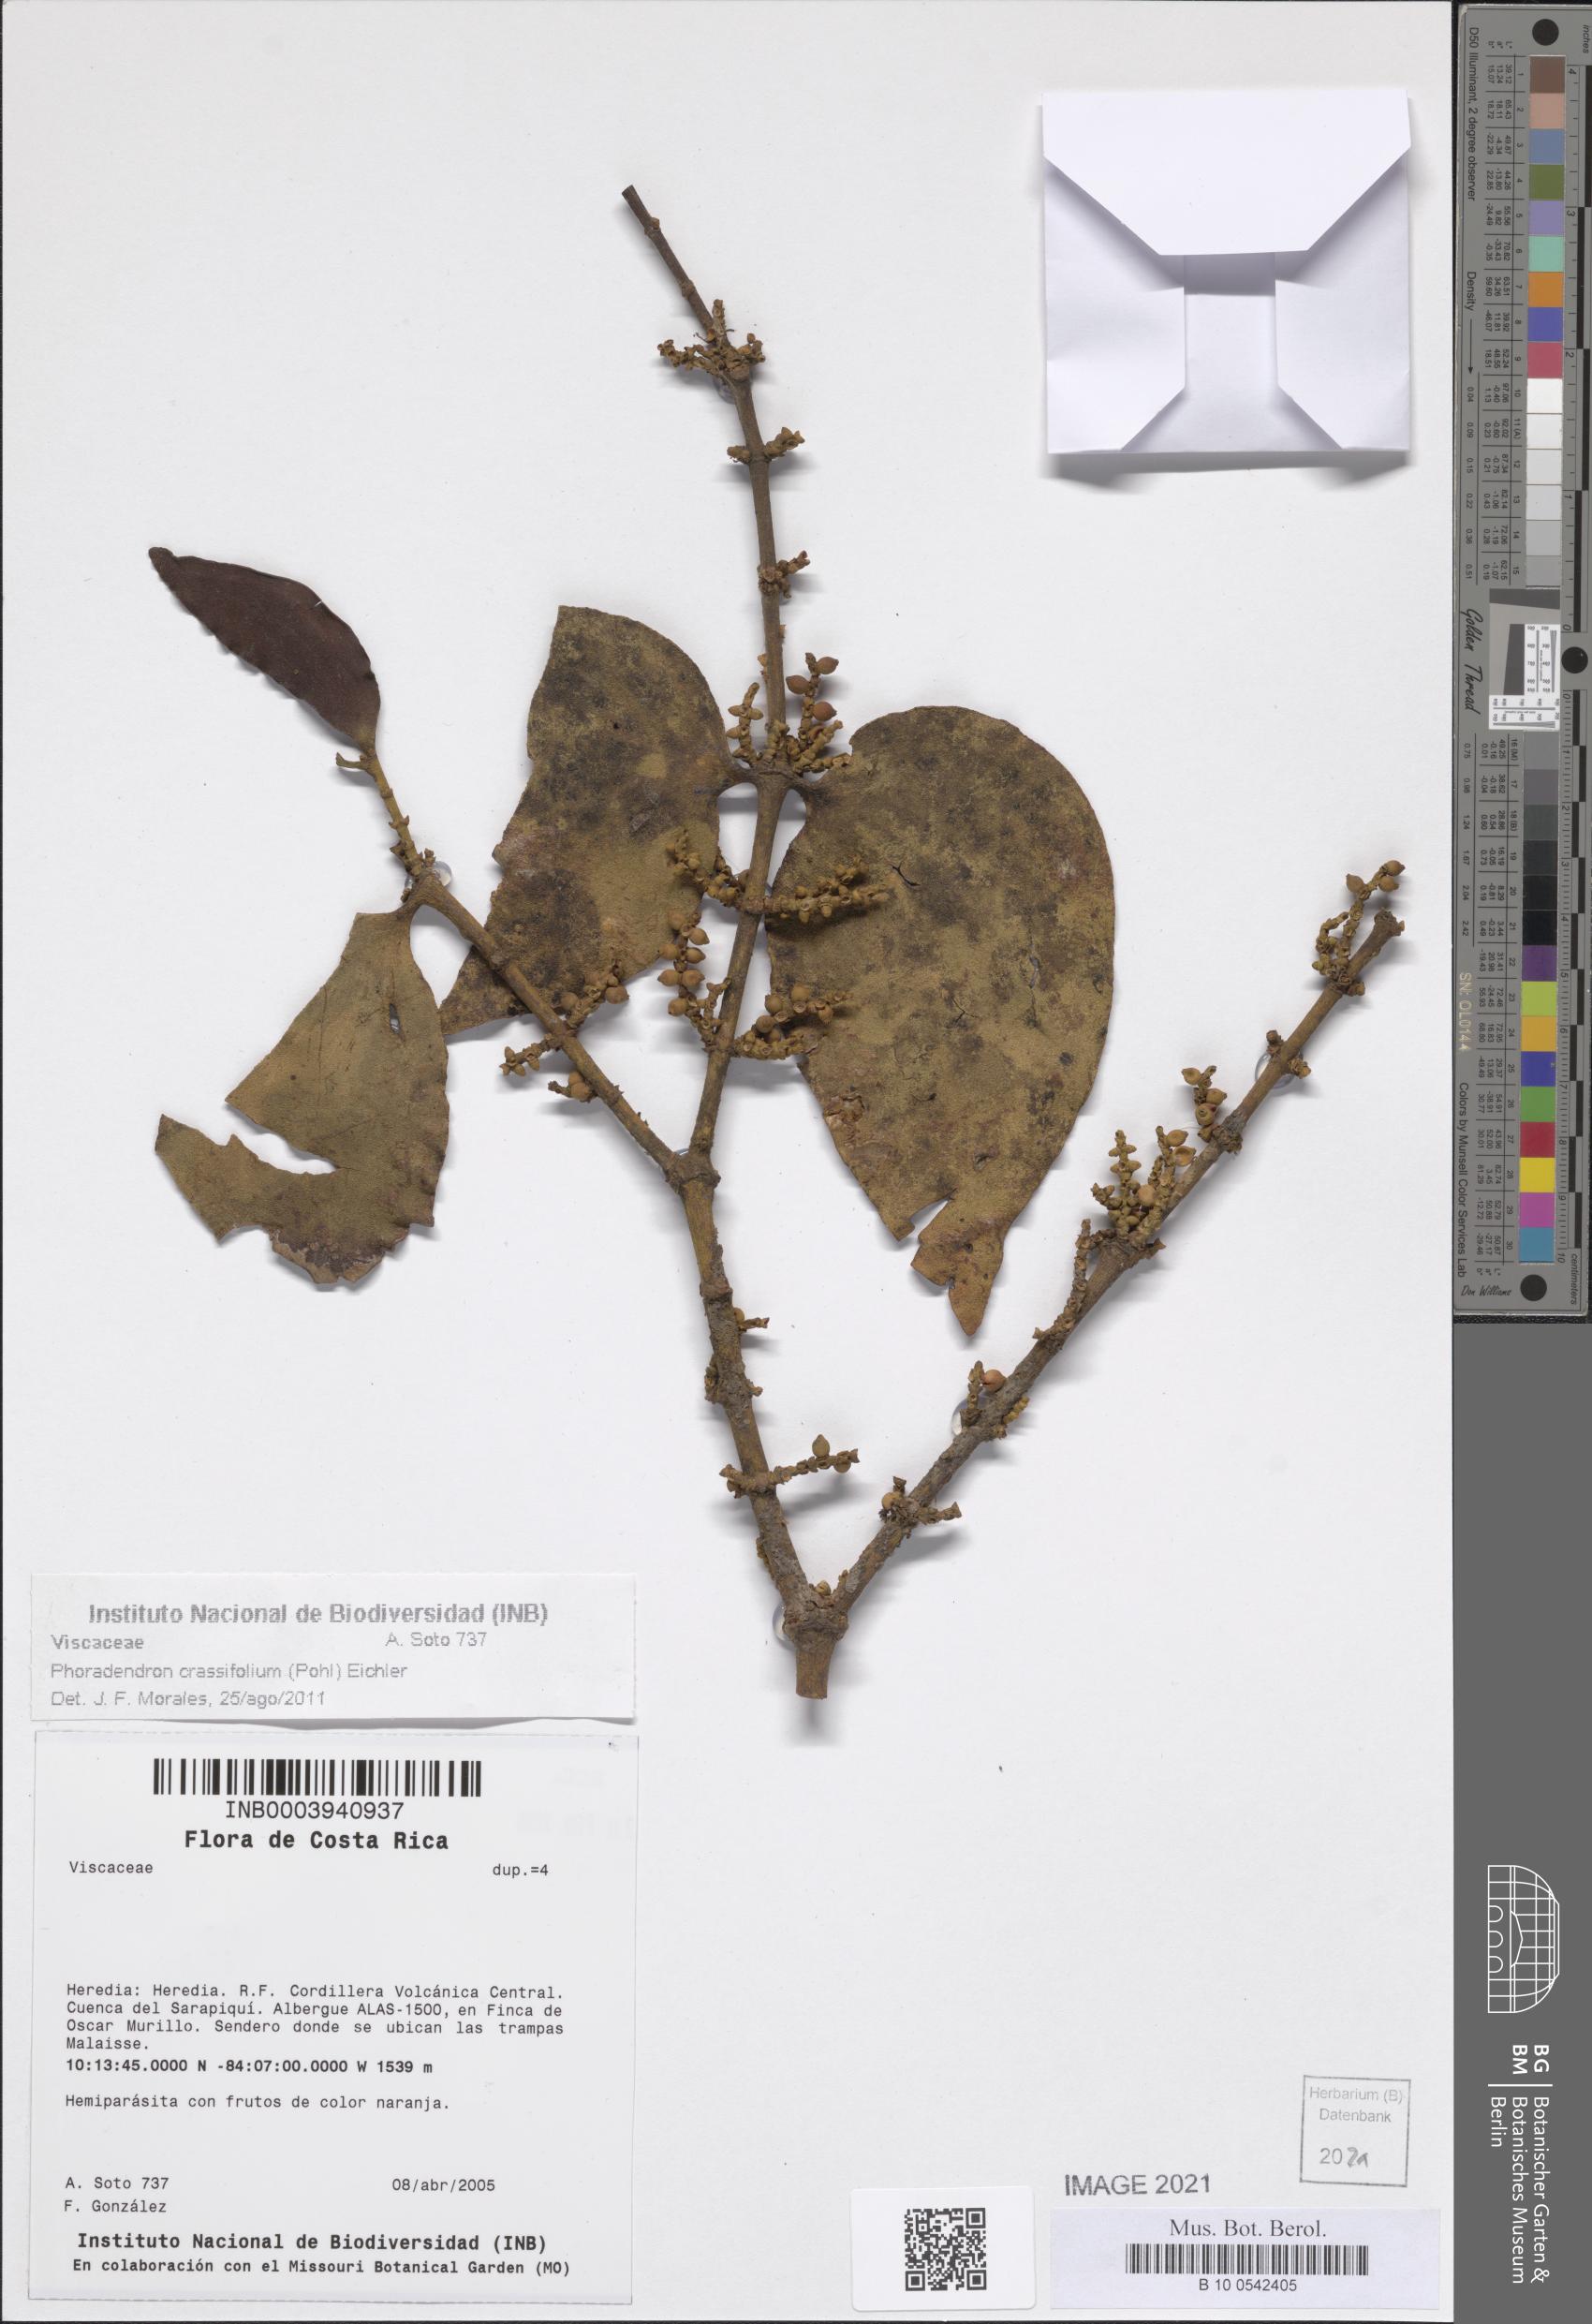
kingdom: Plantae
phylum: Tracheophyta
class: Magnoliopsida
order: Santalales
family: Viscaceae
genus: Phoradendron
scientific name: Phoradendron crassifolium
